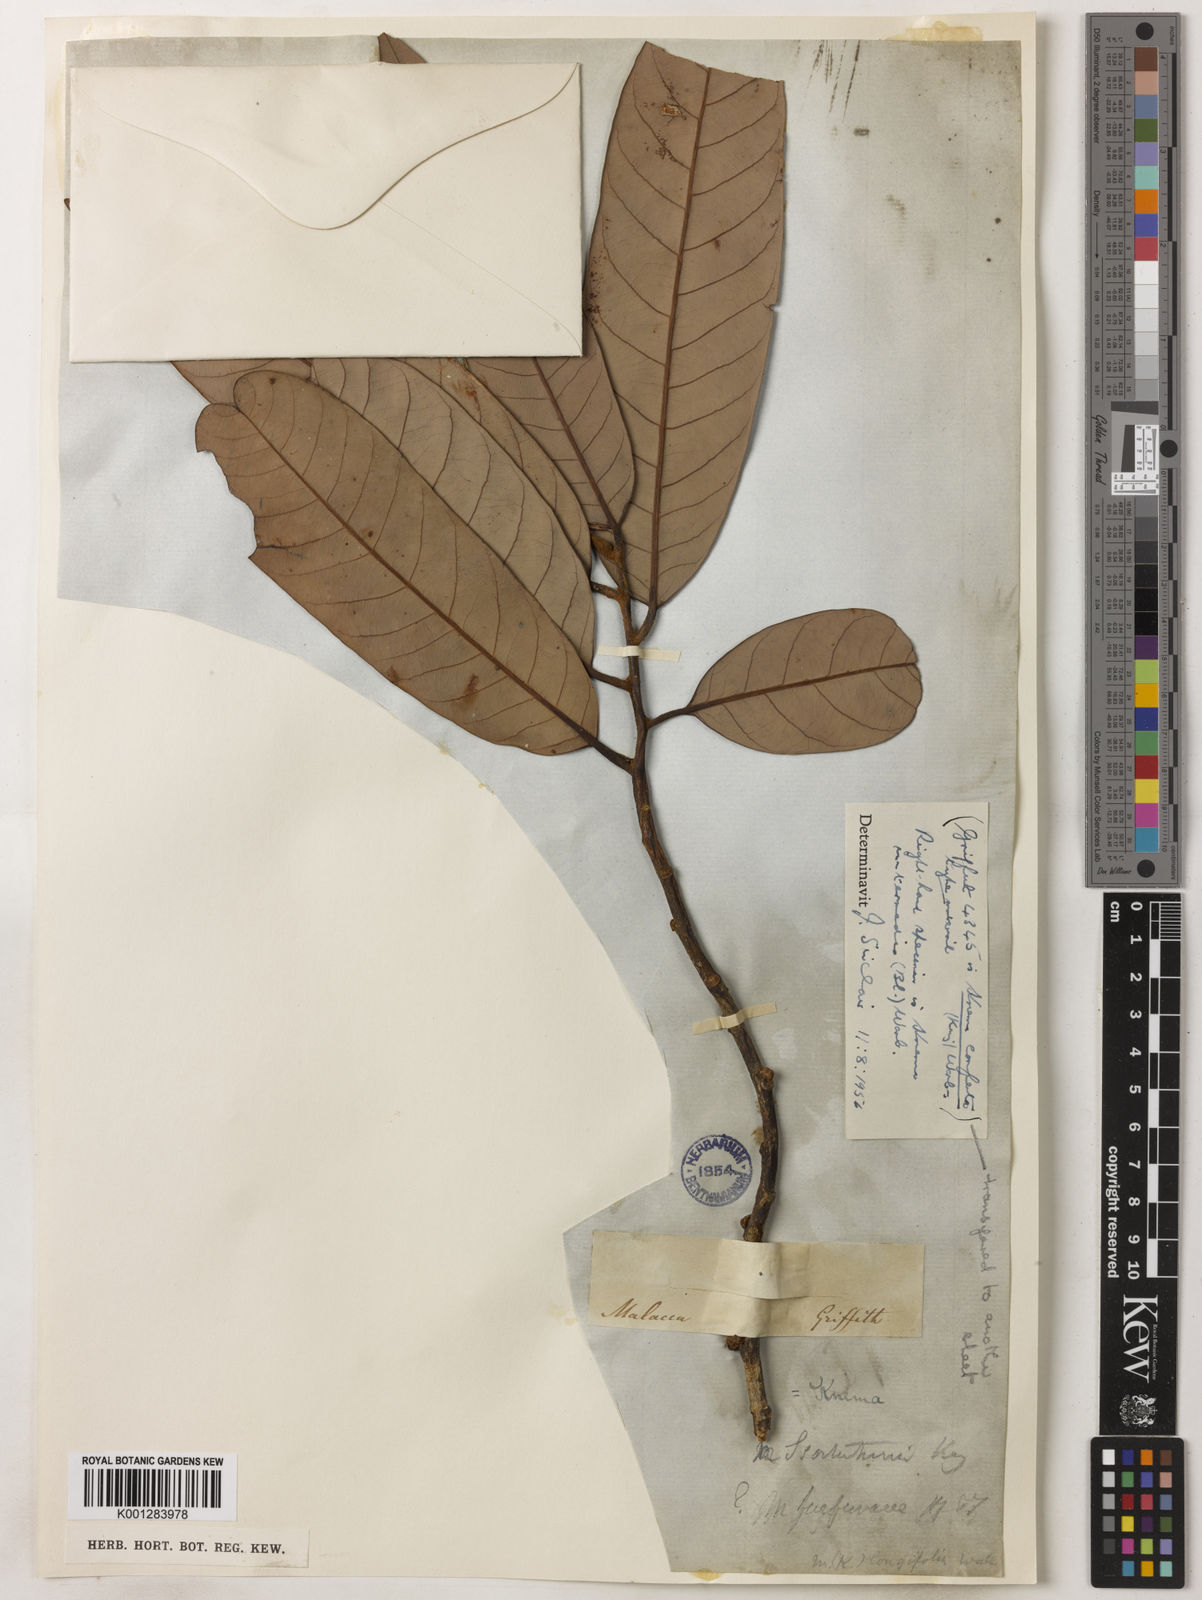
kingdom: Plantae
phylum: Tracheophyta
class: Magnoliopsida
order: Magnoliales
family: Myristicaceae
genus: Knema
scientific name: Knema intermedia
